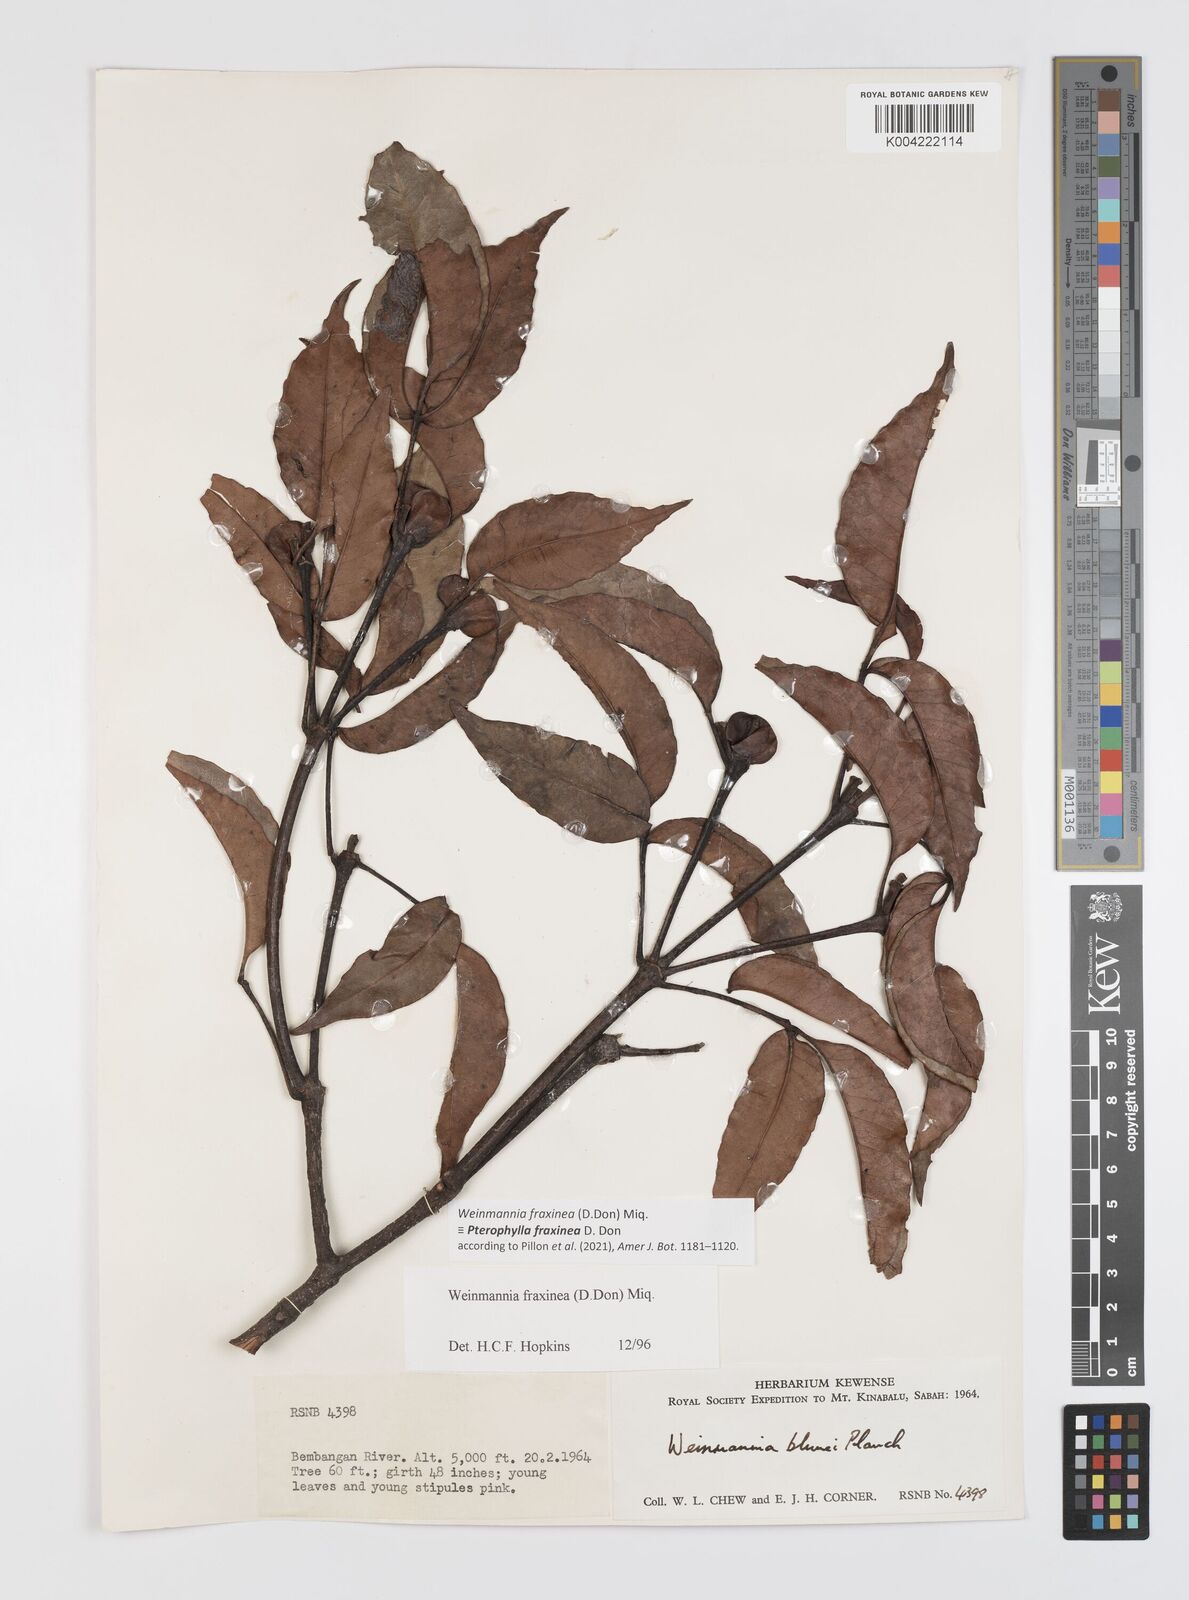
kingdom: Plantae
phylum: Tracheophyta
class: Magnoliopsida
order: Oxalidales
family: Cunoniaceae
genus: Pterophylla
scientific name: Pterophylla fraxinea
